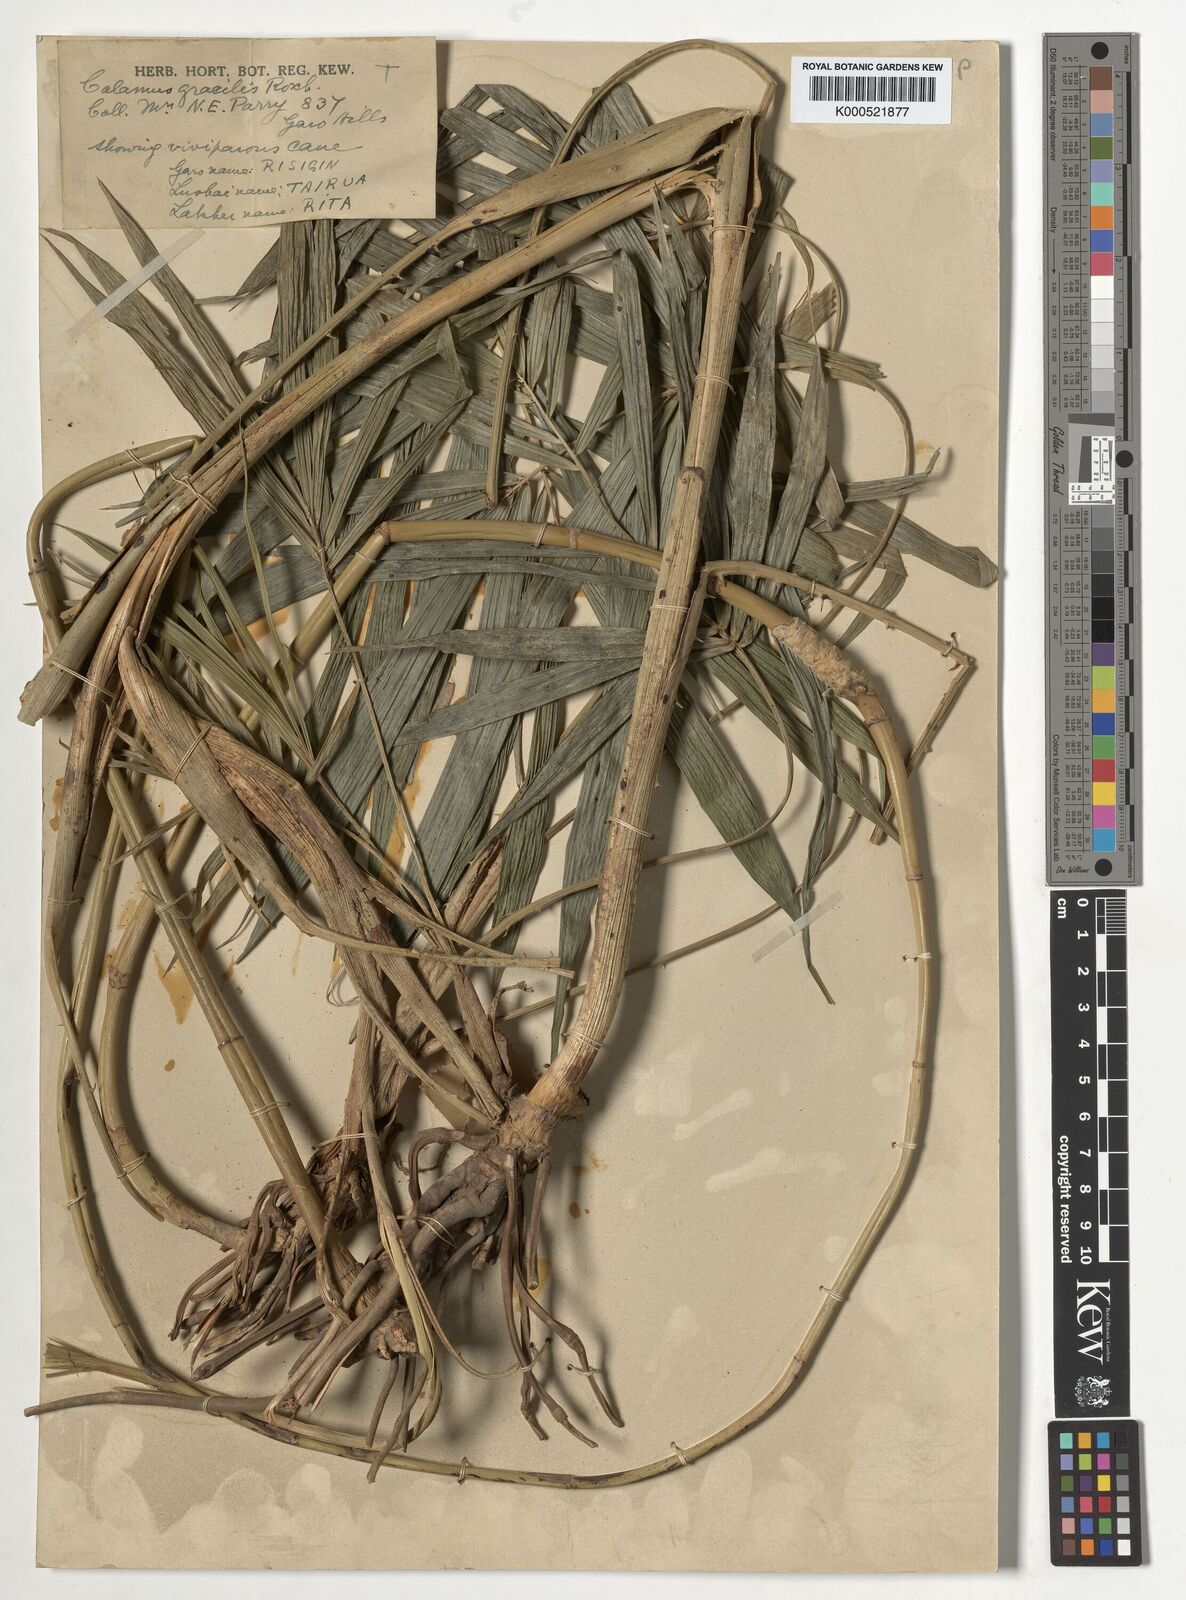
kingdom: Plantae
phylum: Tracheophyta
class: Liliopsida
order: Arecales
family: Arecaceae
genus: Calamus
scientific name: Calamus gracilis
